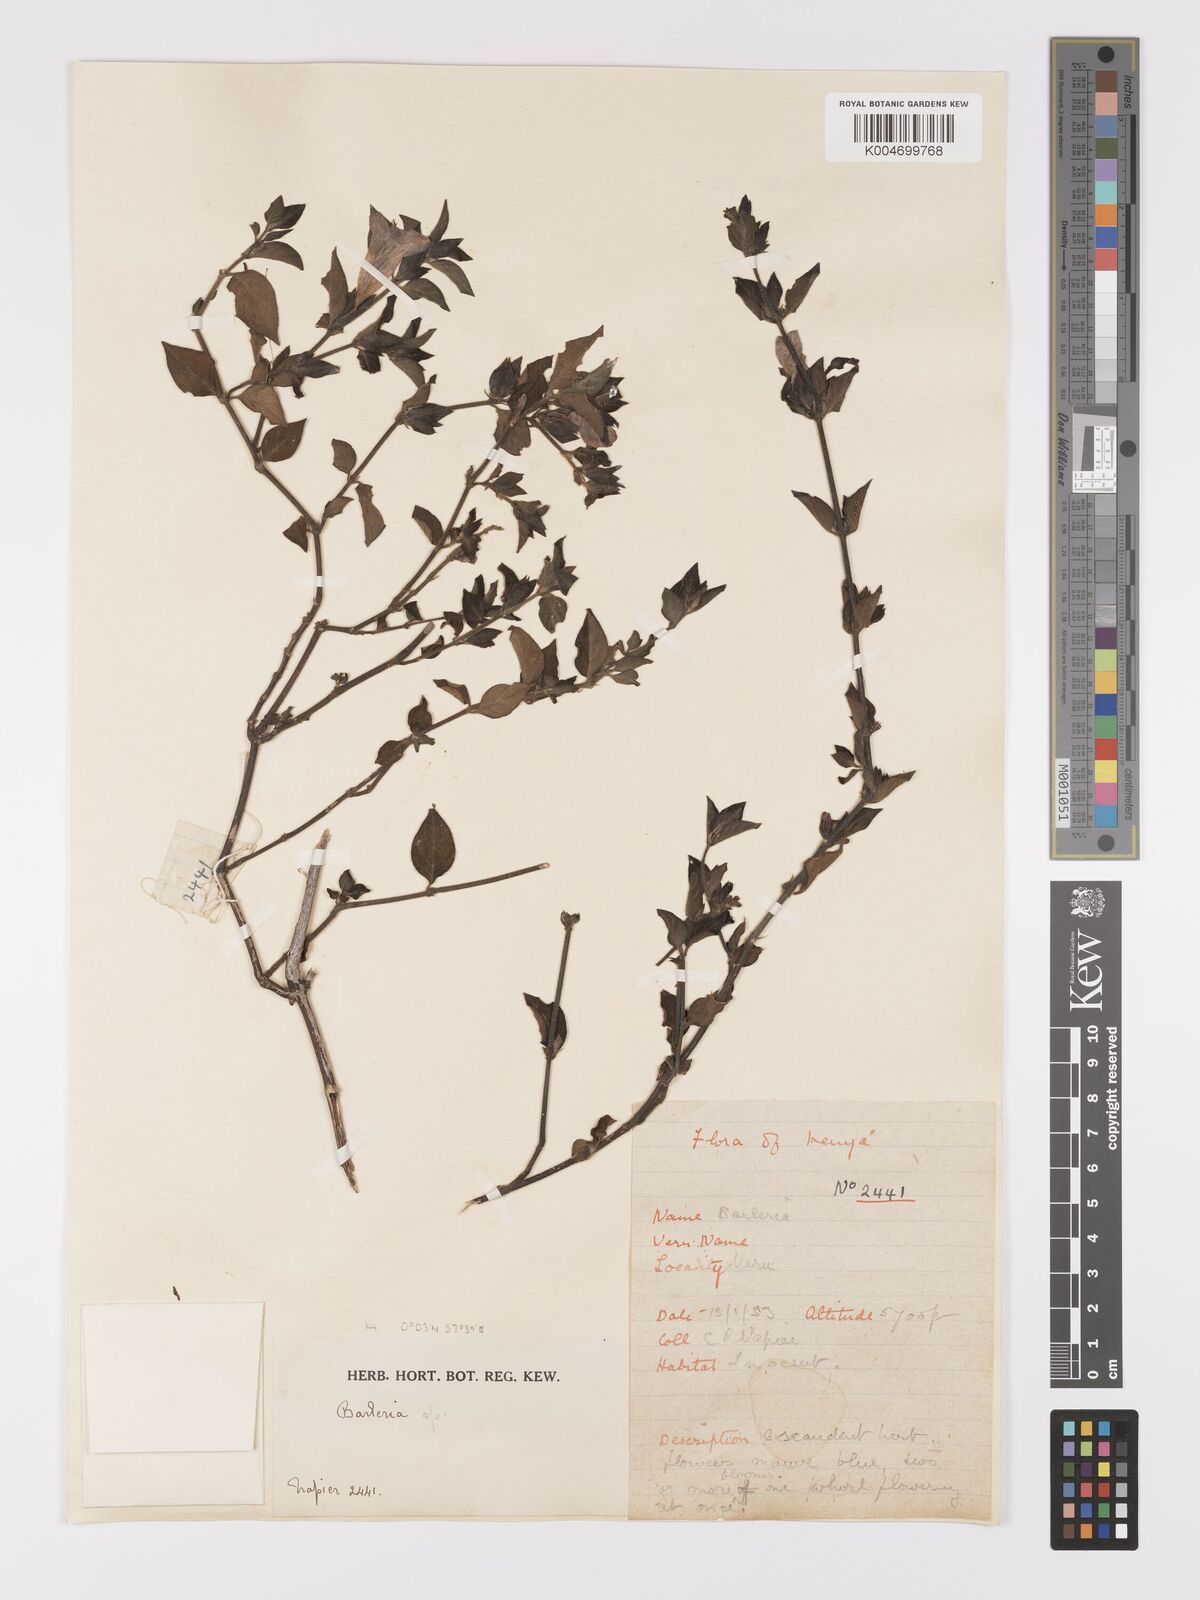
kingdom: Plantae
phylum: Tracheophyta
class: Magnoliopsida
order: Lamiales
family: Acanthaceae
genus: Barleria
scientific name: Barleria ventricosa
